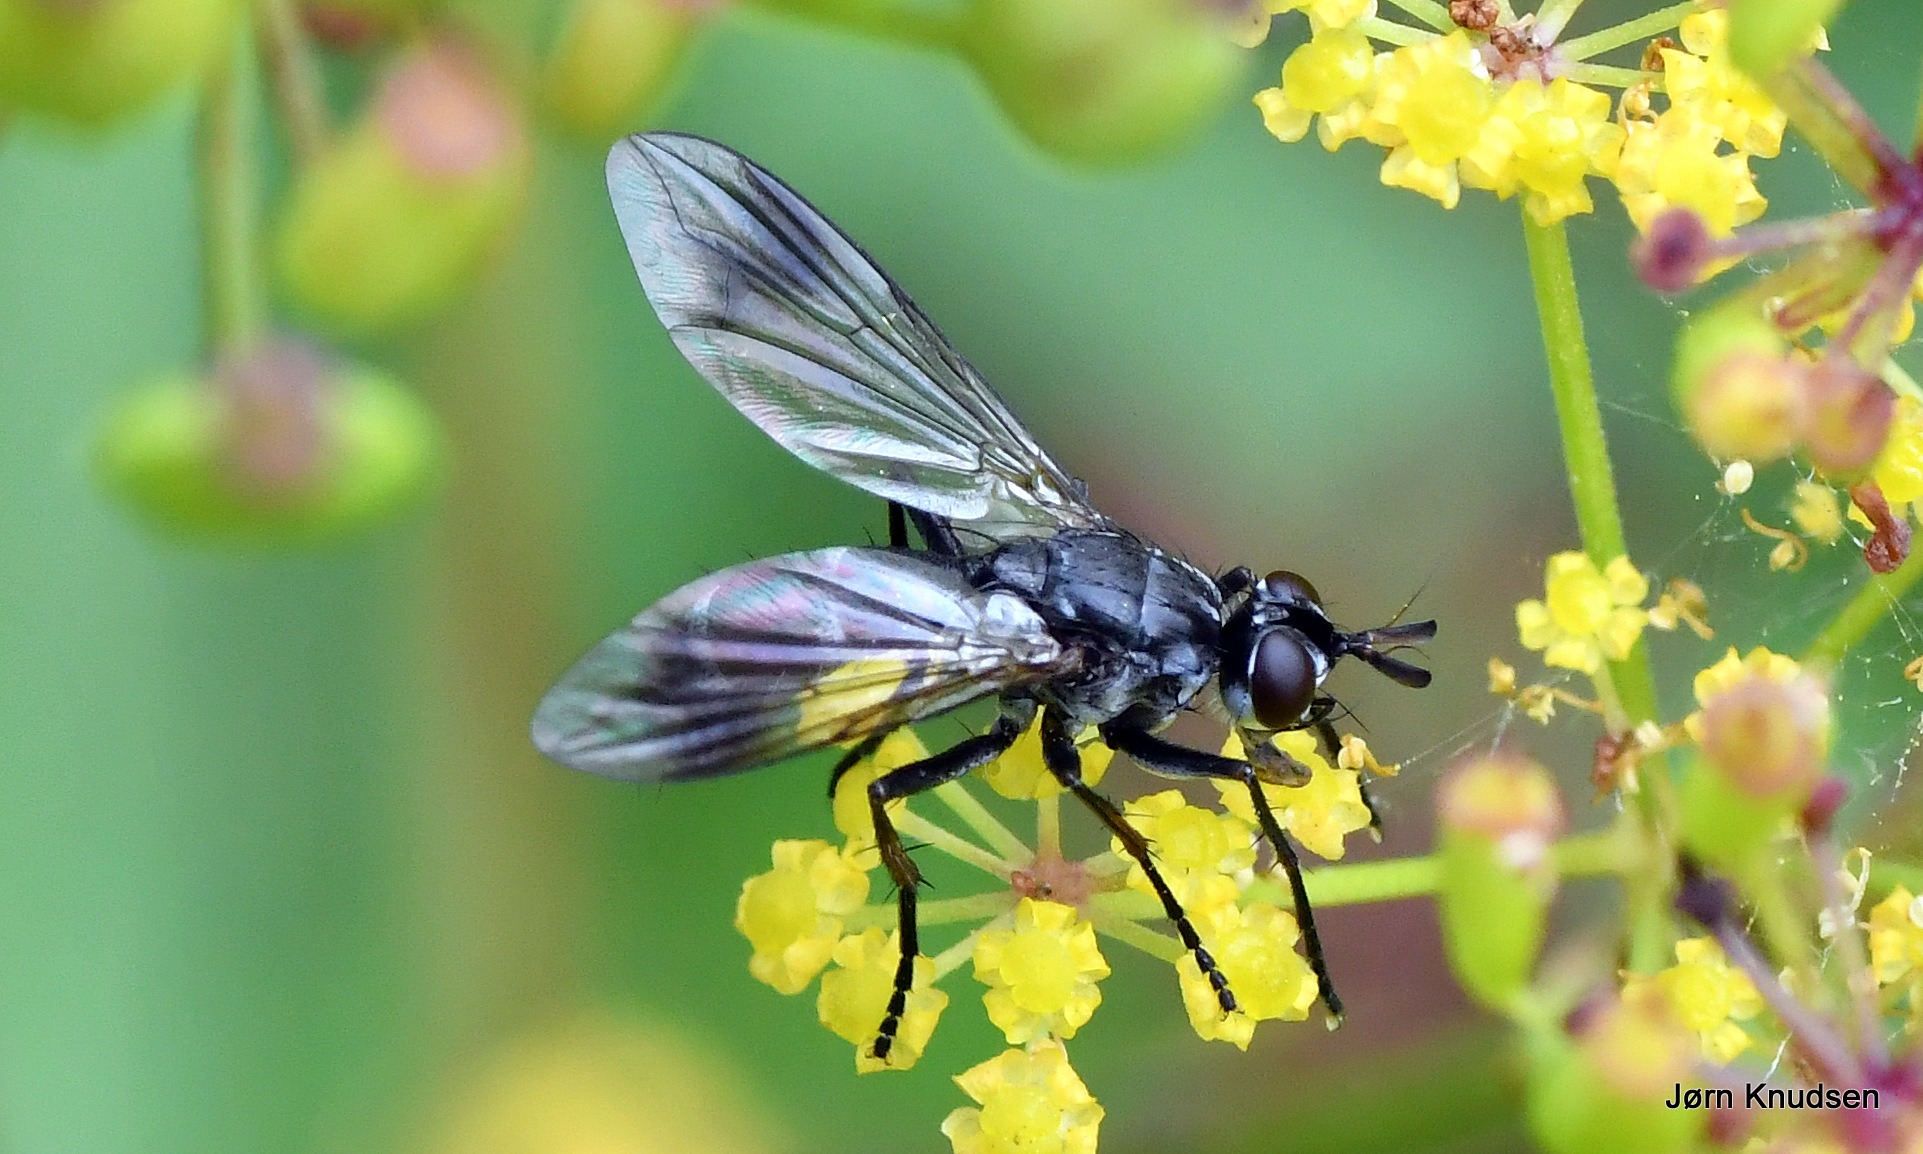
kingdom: Animalia
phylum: Arthropoda
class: Insecta
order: Diptera
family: Tachinidae
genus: Lophosia
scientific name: Lophosia fasciata
